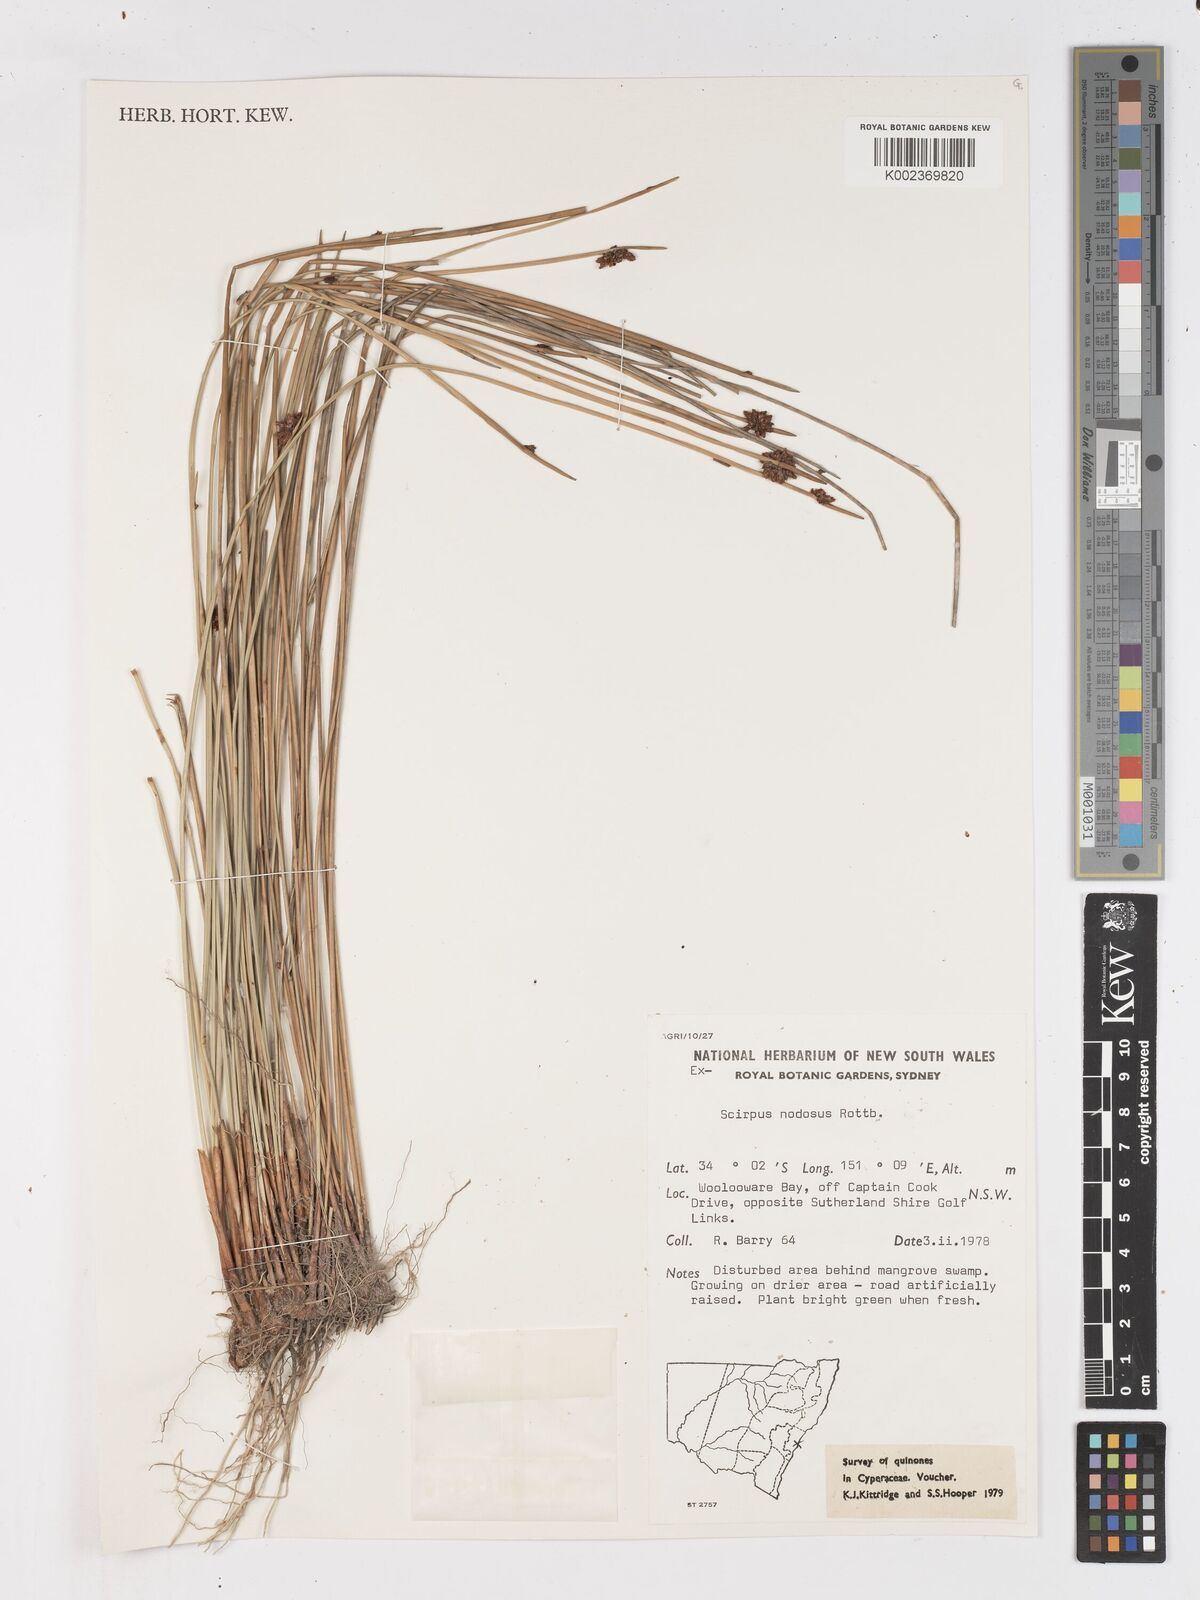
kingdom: Plantae
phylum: Tracheophyta
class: Liliopsida
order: Poales
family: Cyperaceae
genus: Ficinia
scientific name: Ficinia nodosa
